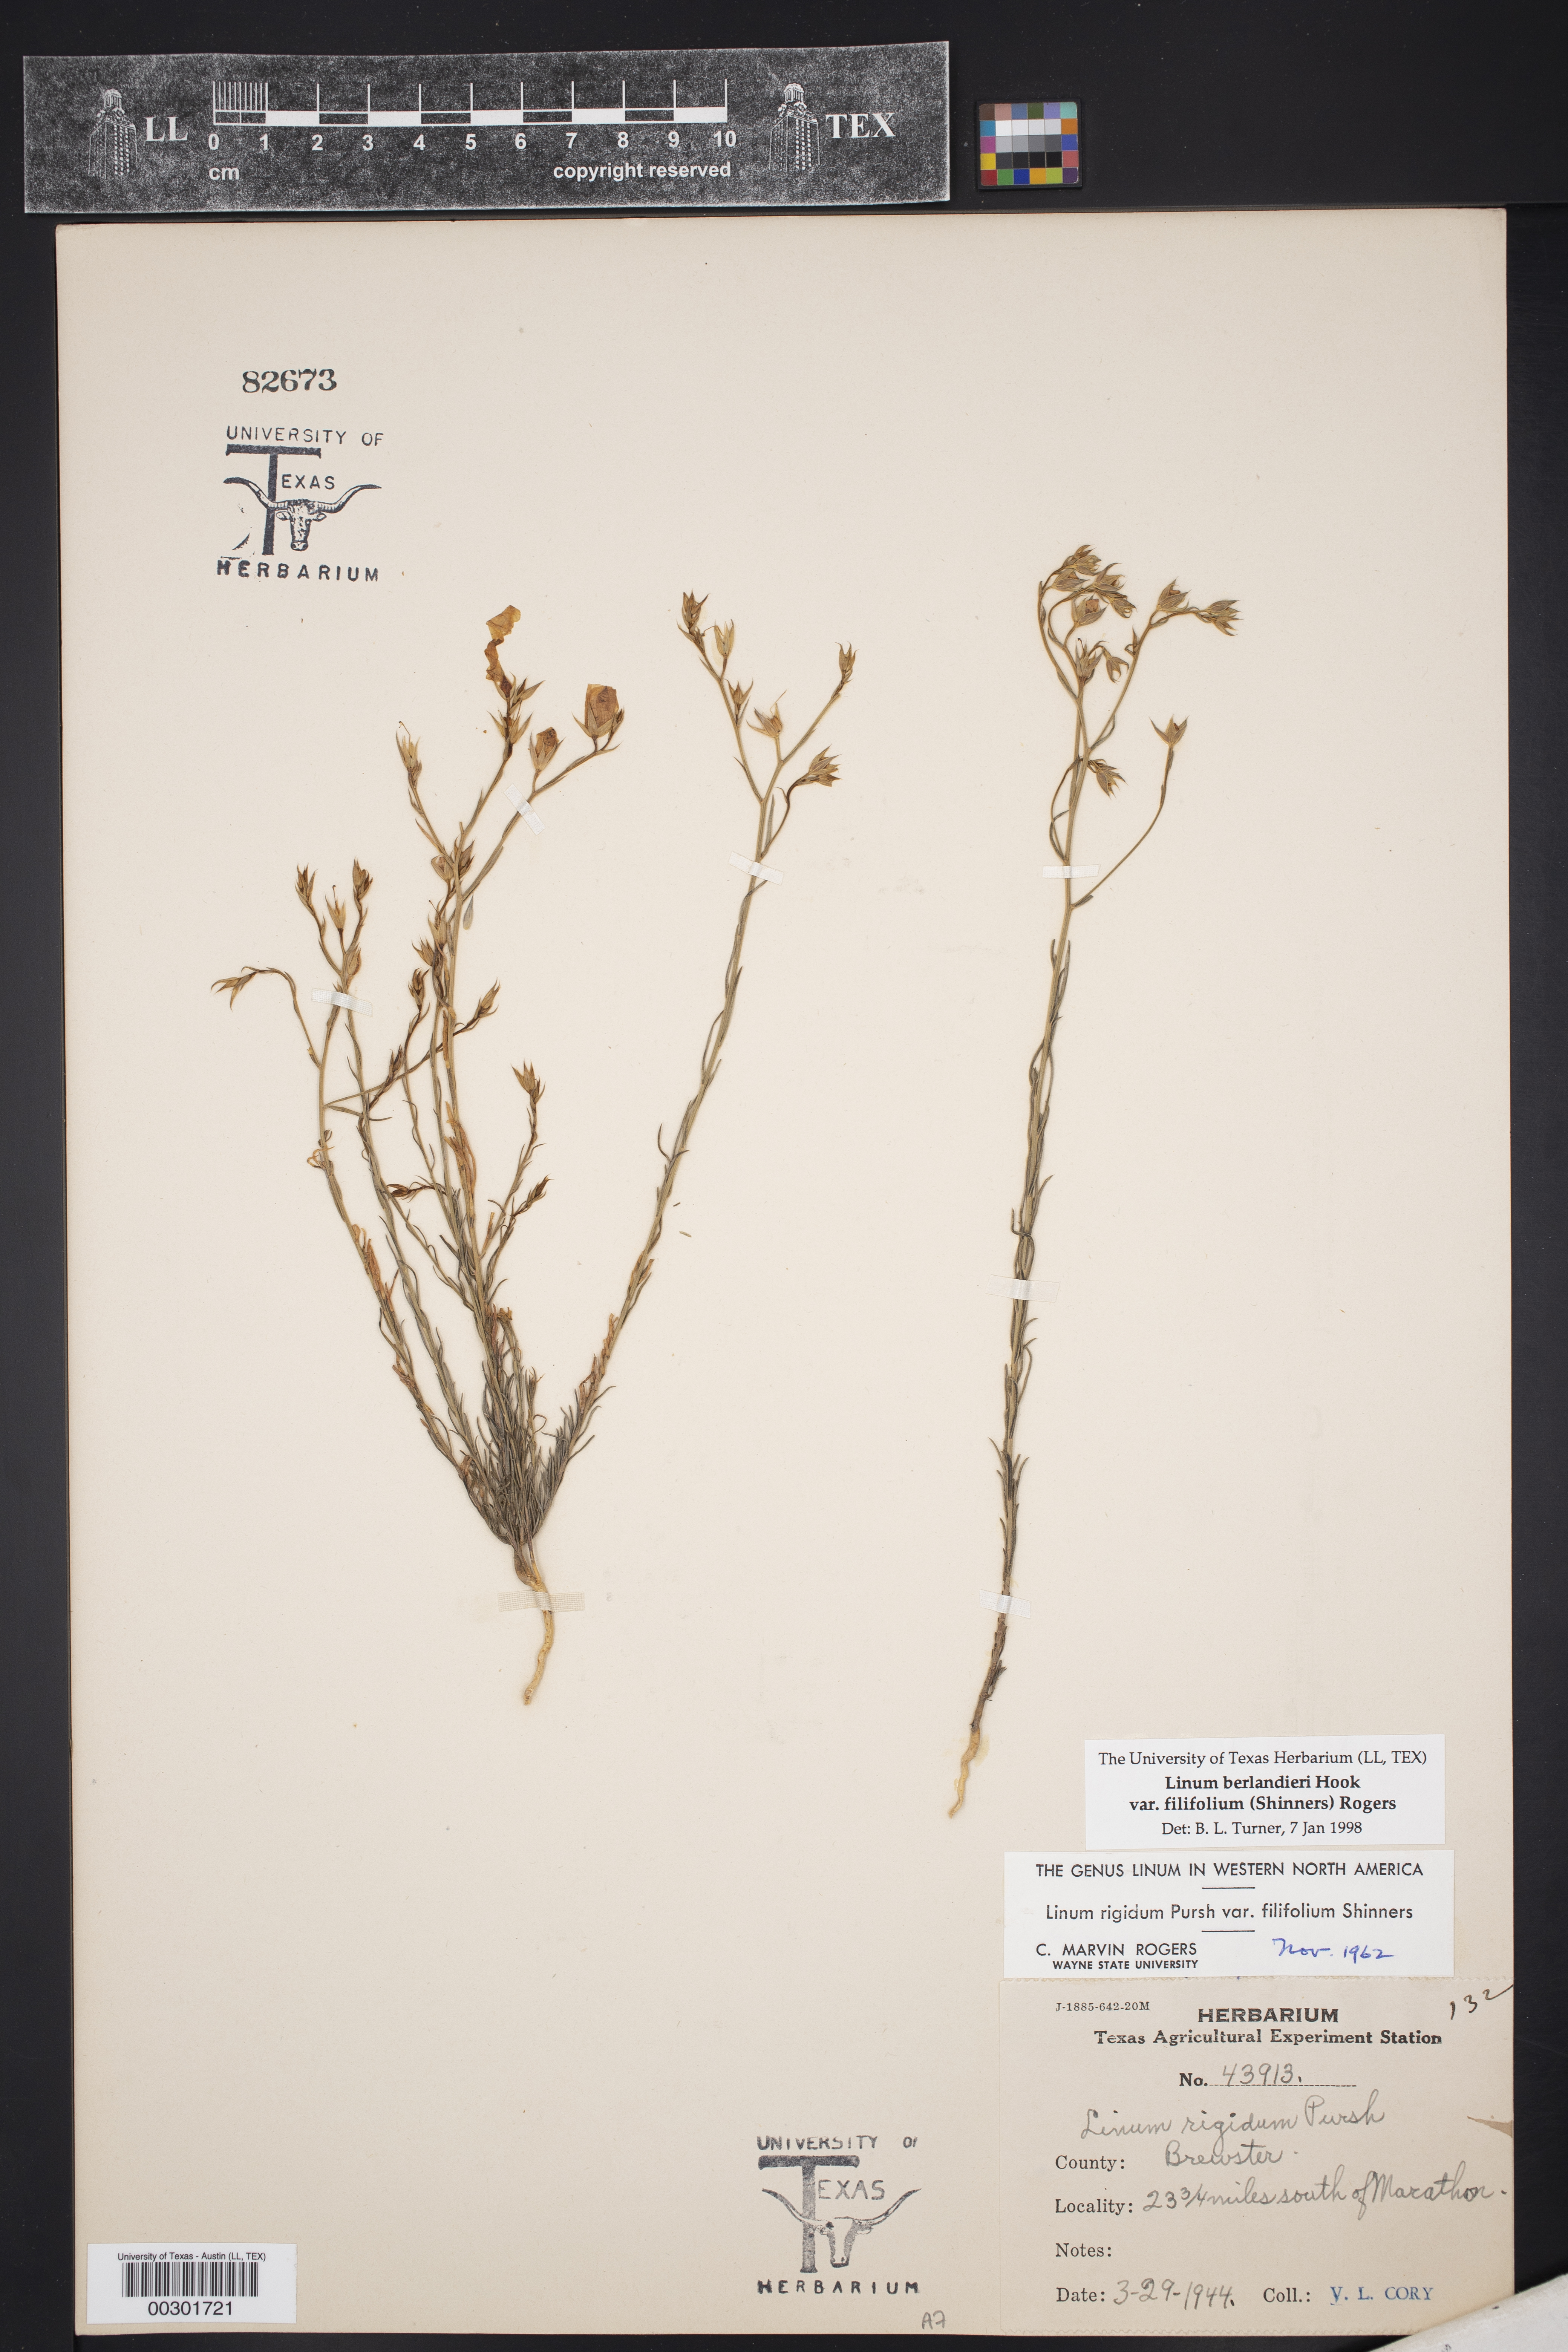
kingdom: Plantae
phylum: Tracheophyta
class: Magnoliopsida
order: Malpighiales
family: Linaceae
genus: Linum
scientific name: Linum berlandieri
